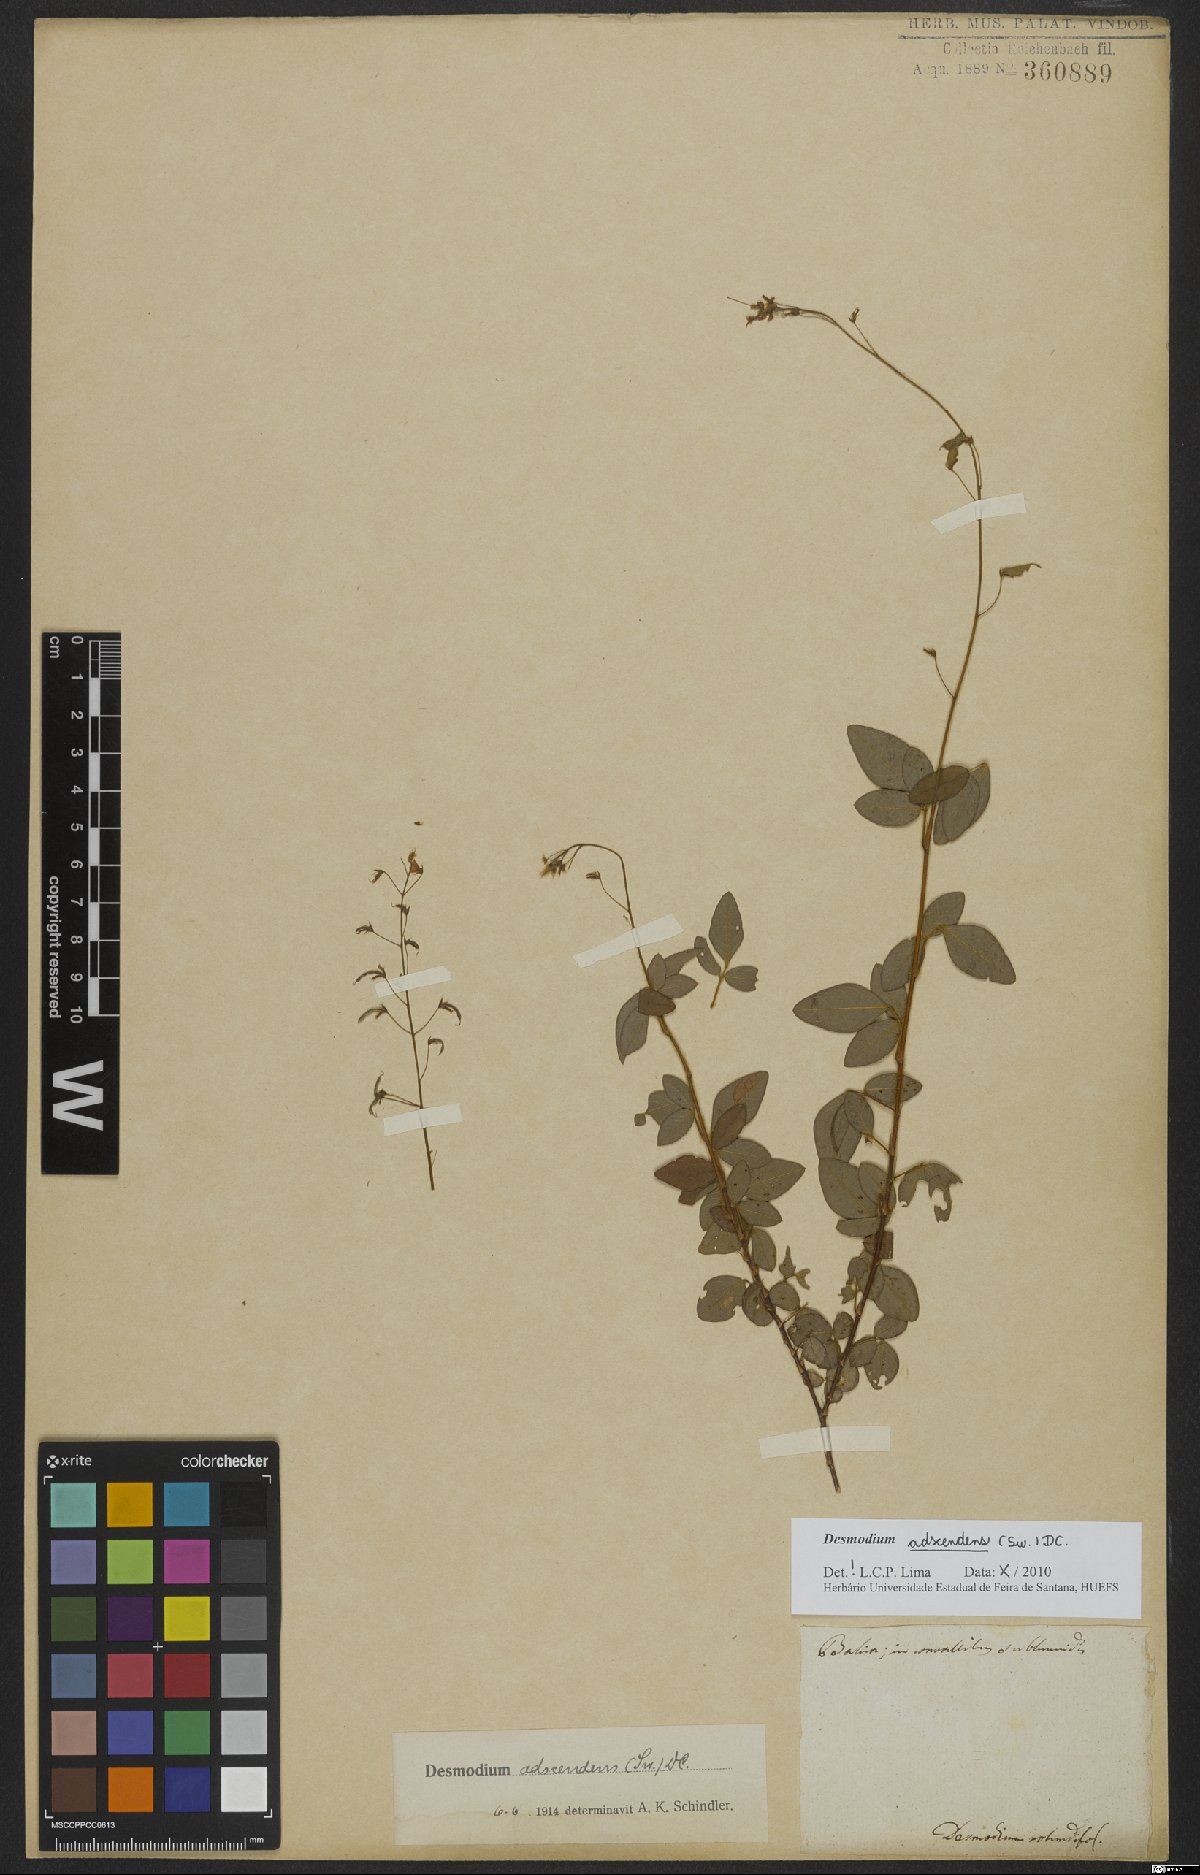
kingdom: Plantae
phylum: Tracheophyta
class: Magnoliopsida
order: Fabales
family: Fabaceae
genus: Grona
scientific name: Grona adscendens
